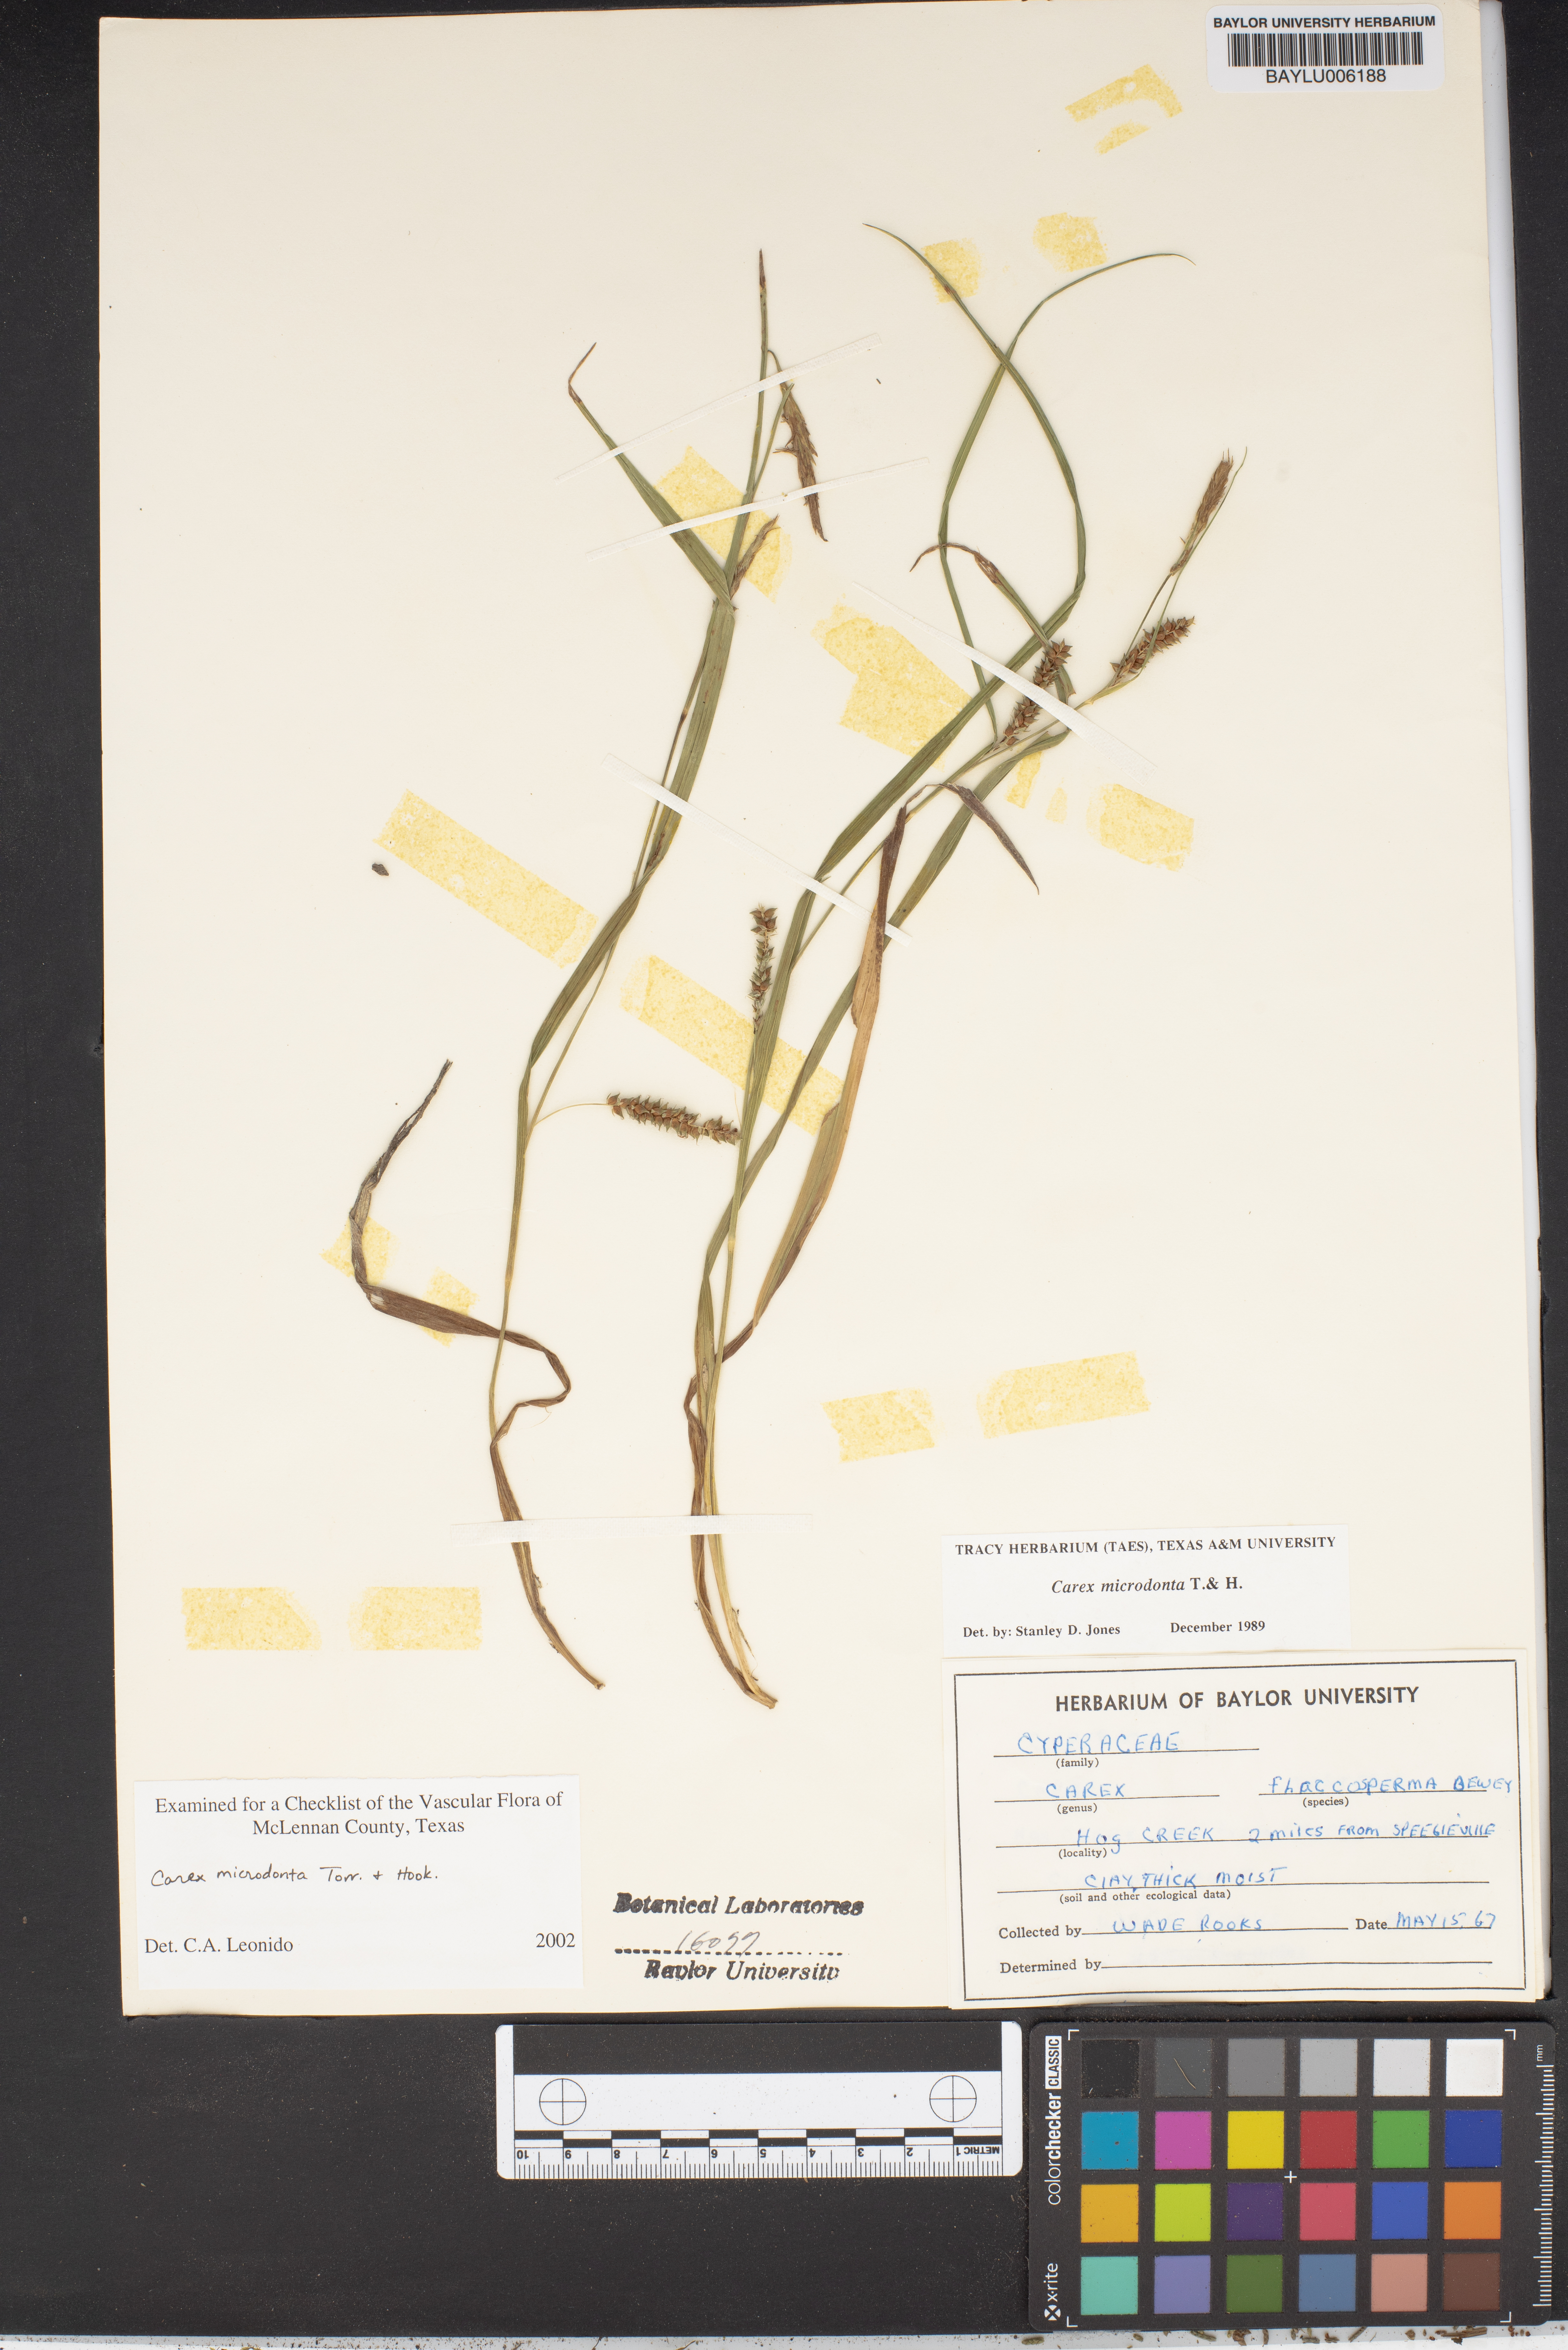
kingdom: Plantae
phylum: Tracheophyta
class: Liliopsida
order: Poales
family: Cyperaceae
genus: Carex
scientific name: Carex microdonta
